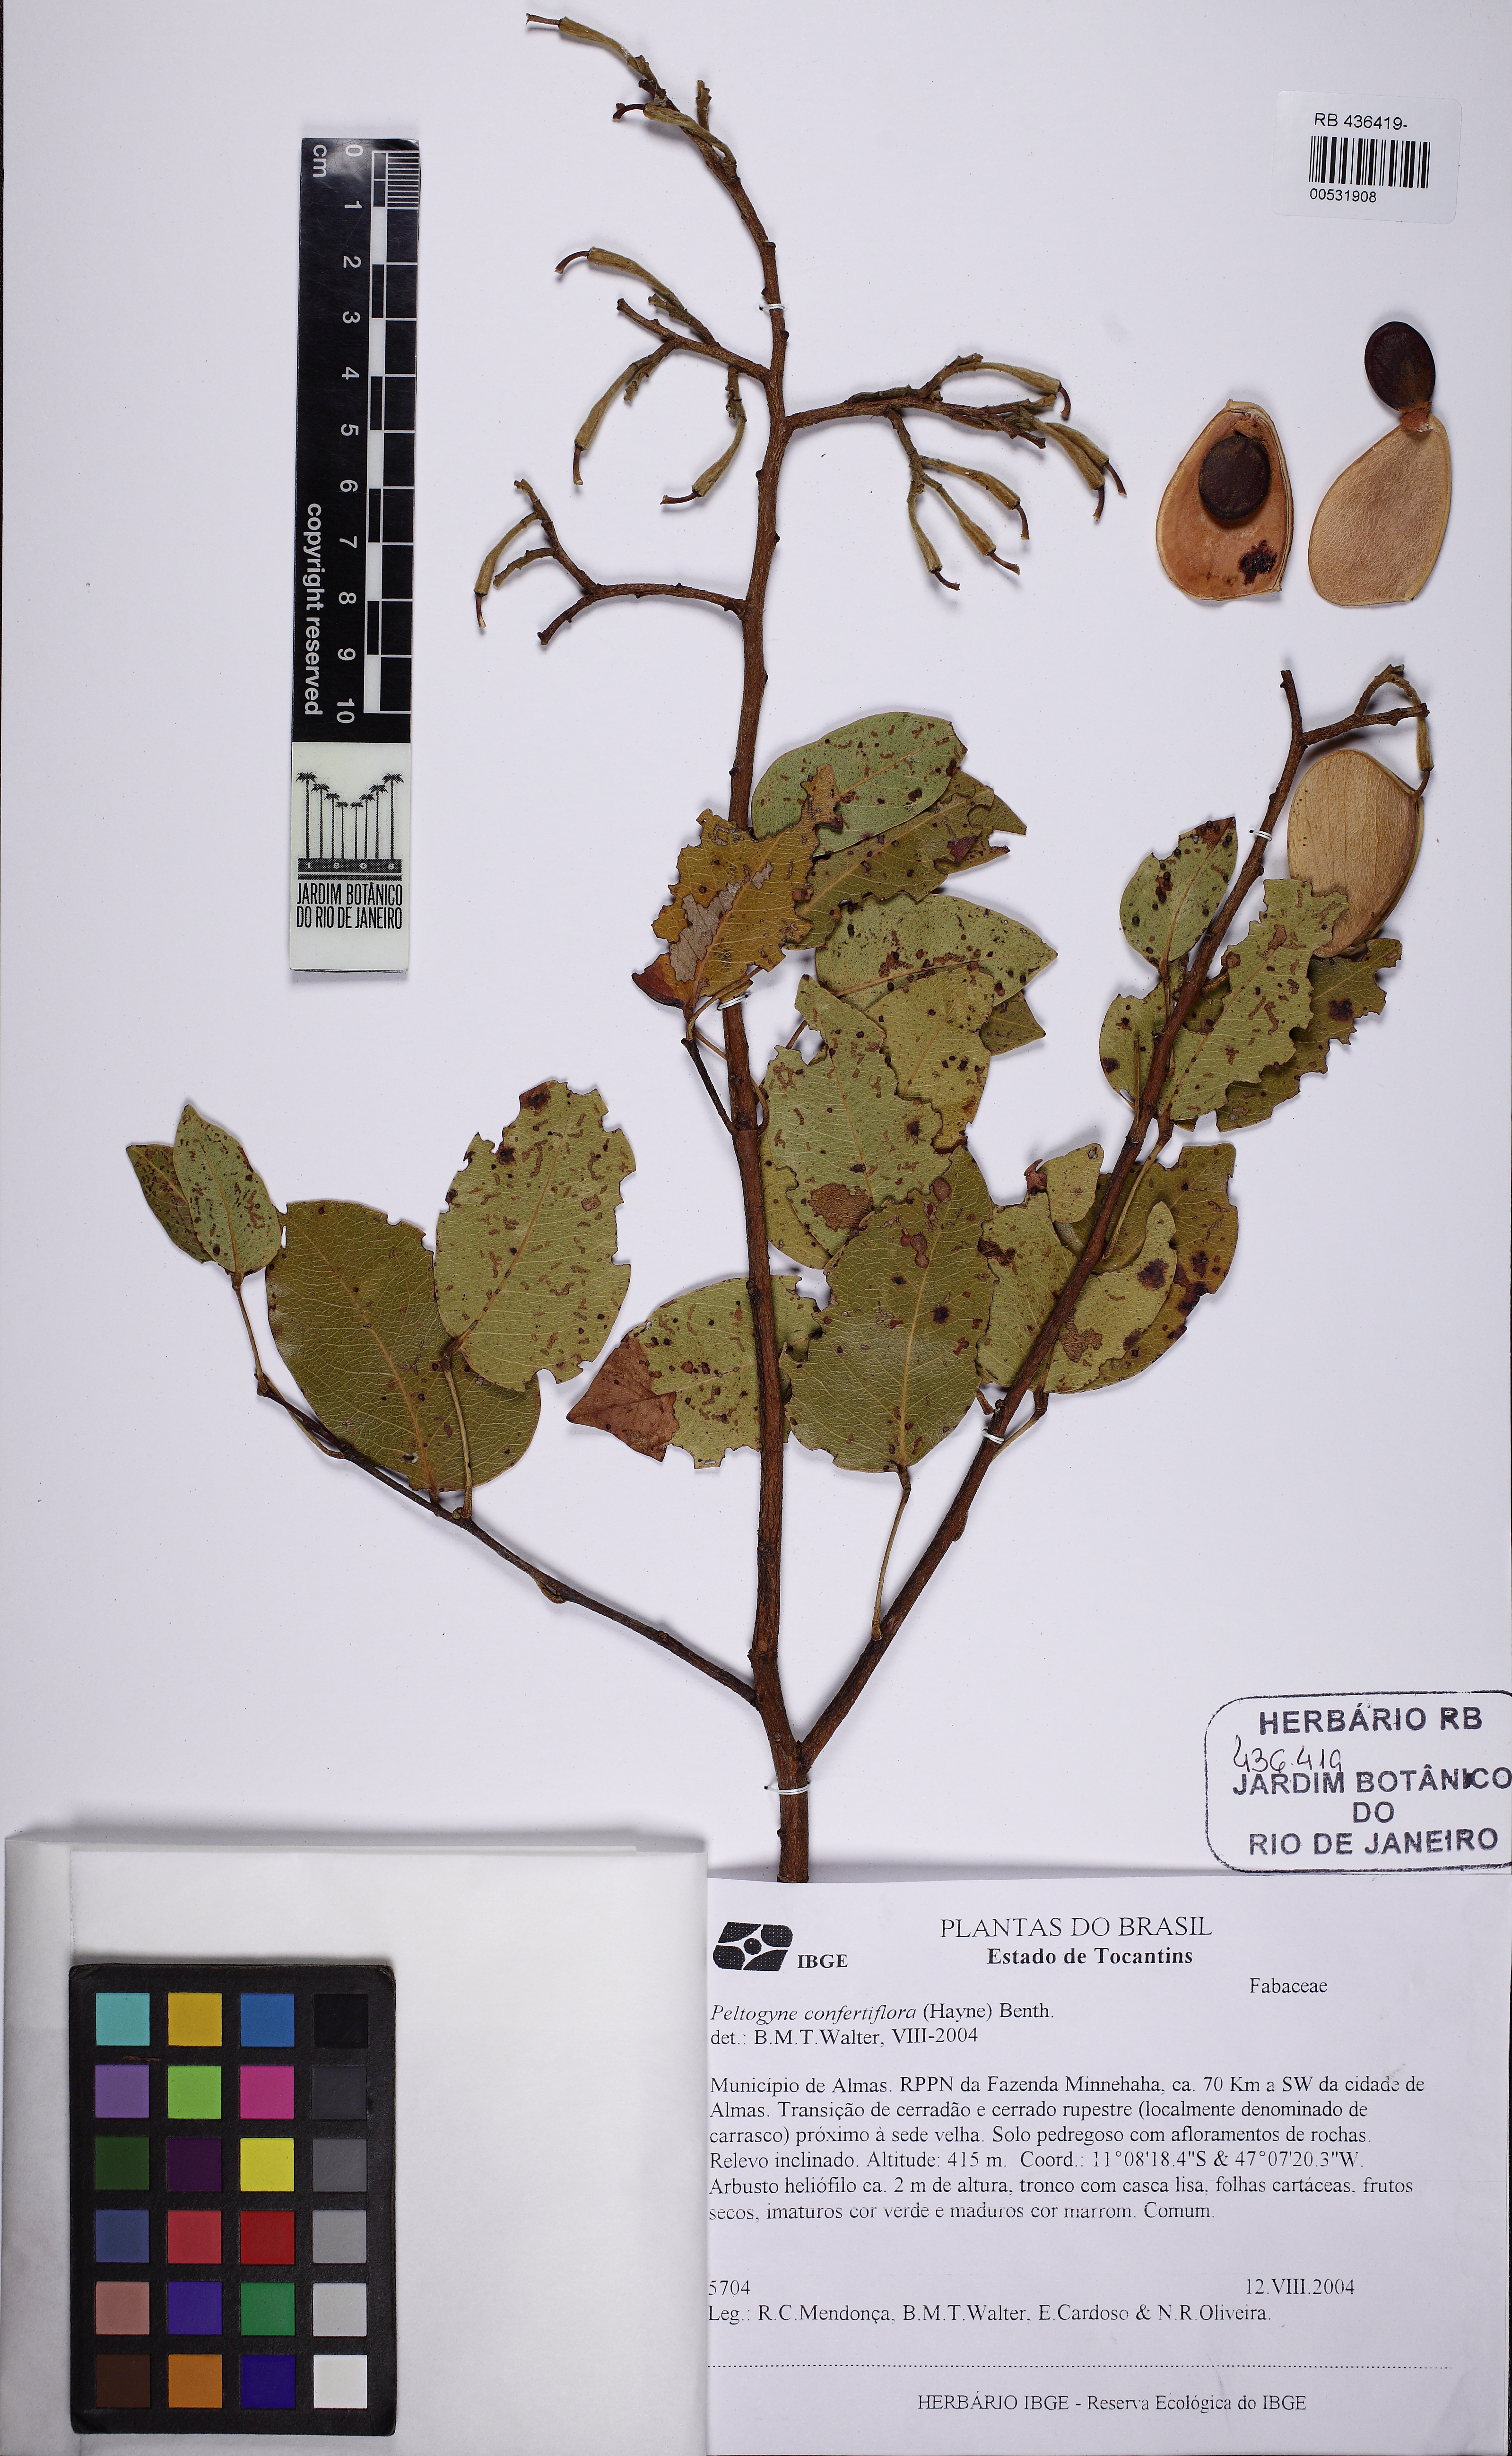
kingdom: Plantae
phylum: Tracheophyta
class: Magnoliopsida
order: Fabales
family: Fabaceae
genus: Peltogyne
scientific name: Peltogyne confertiflora
